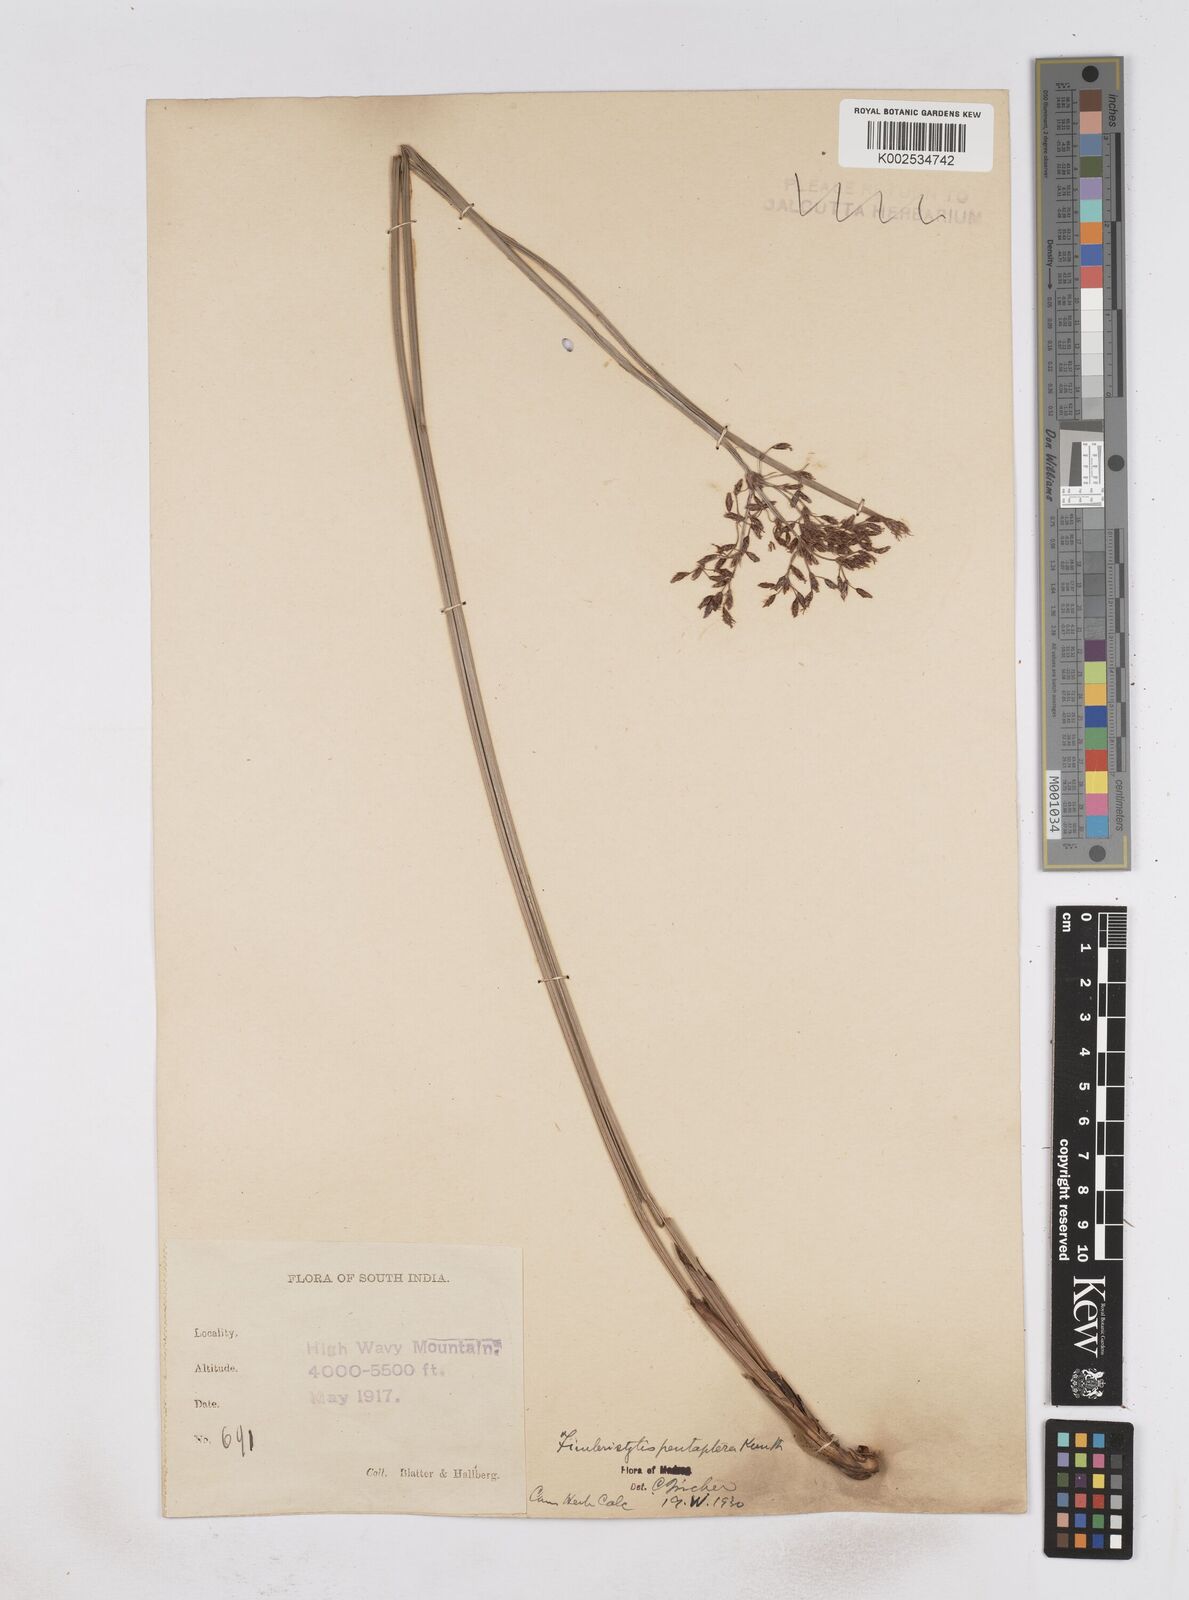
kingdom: Plantae
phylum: Tracheophyta
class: Liliopsida
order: Poales
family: Cyperaceae
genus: Fimbristylis
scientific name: Fimbristylis salbundia
